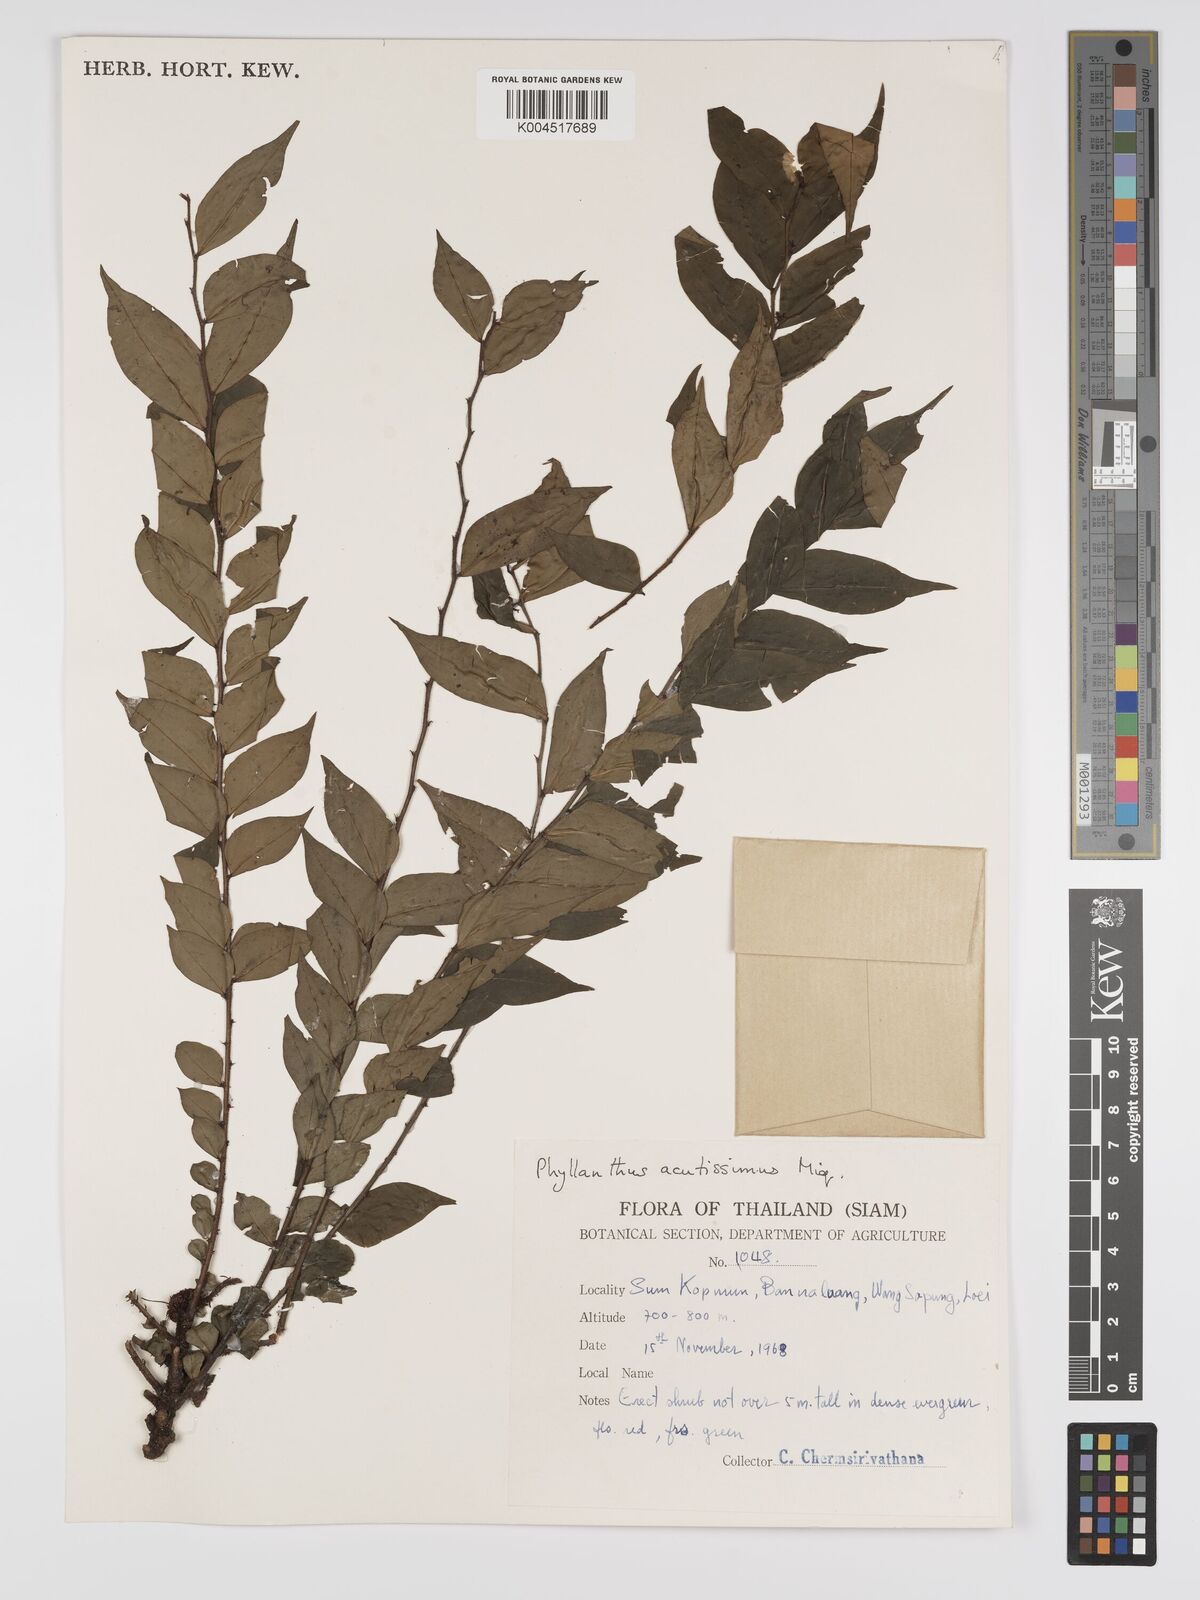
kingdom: Plantae
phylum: Tracheophyta
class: Magnoliopsida
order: Malpighiales
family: Phyllanthaceae
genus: Phyllanthus
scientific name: Phyllanthus acutissimus
